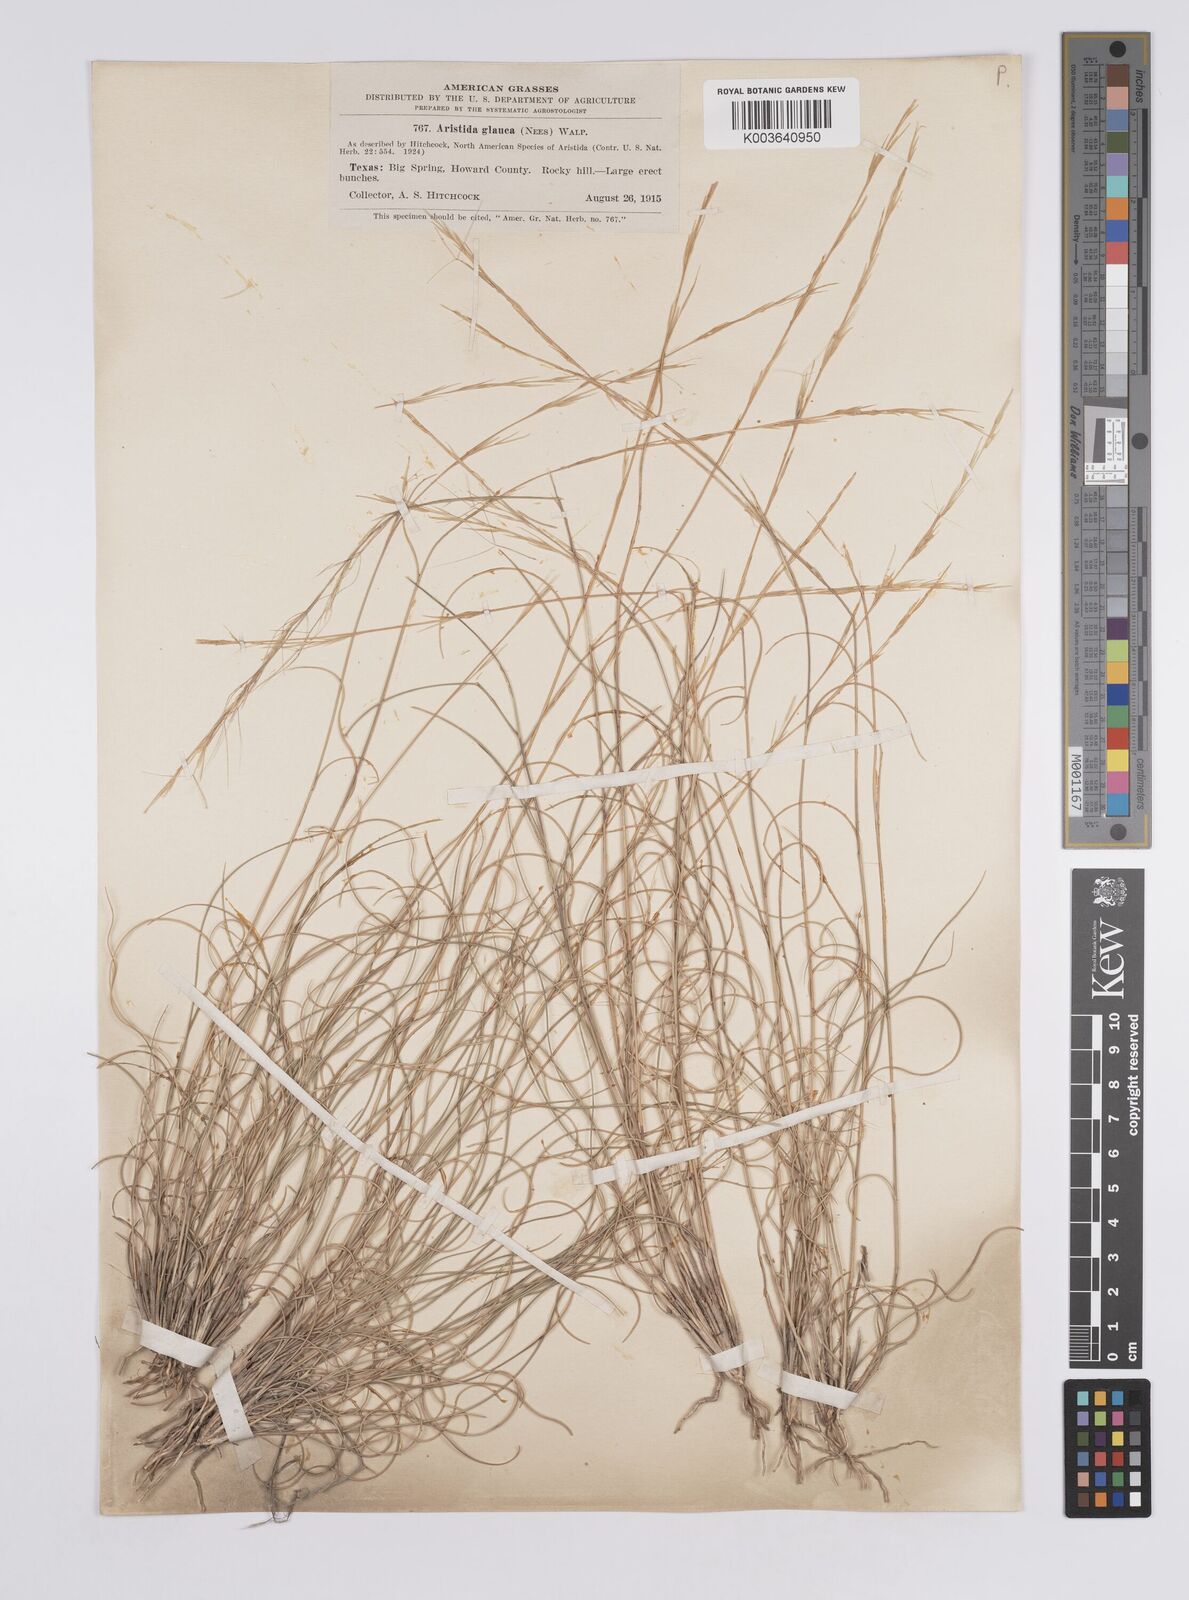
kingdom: Plantae
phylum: Tracheophyta
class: Liliopsida
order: Poales
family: Poaceae
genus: Aristida
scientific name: Aristida purpurea
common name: Purple threeawn
